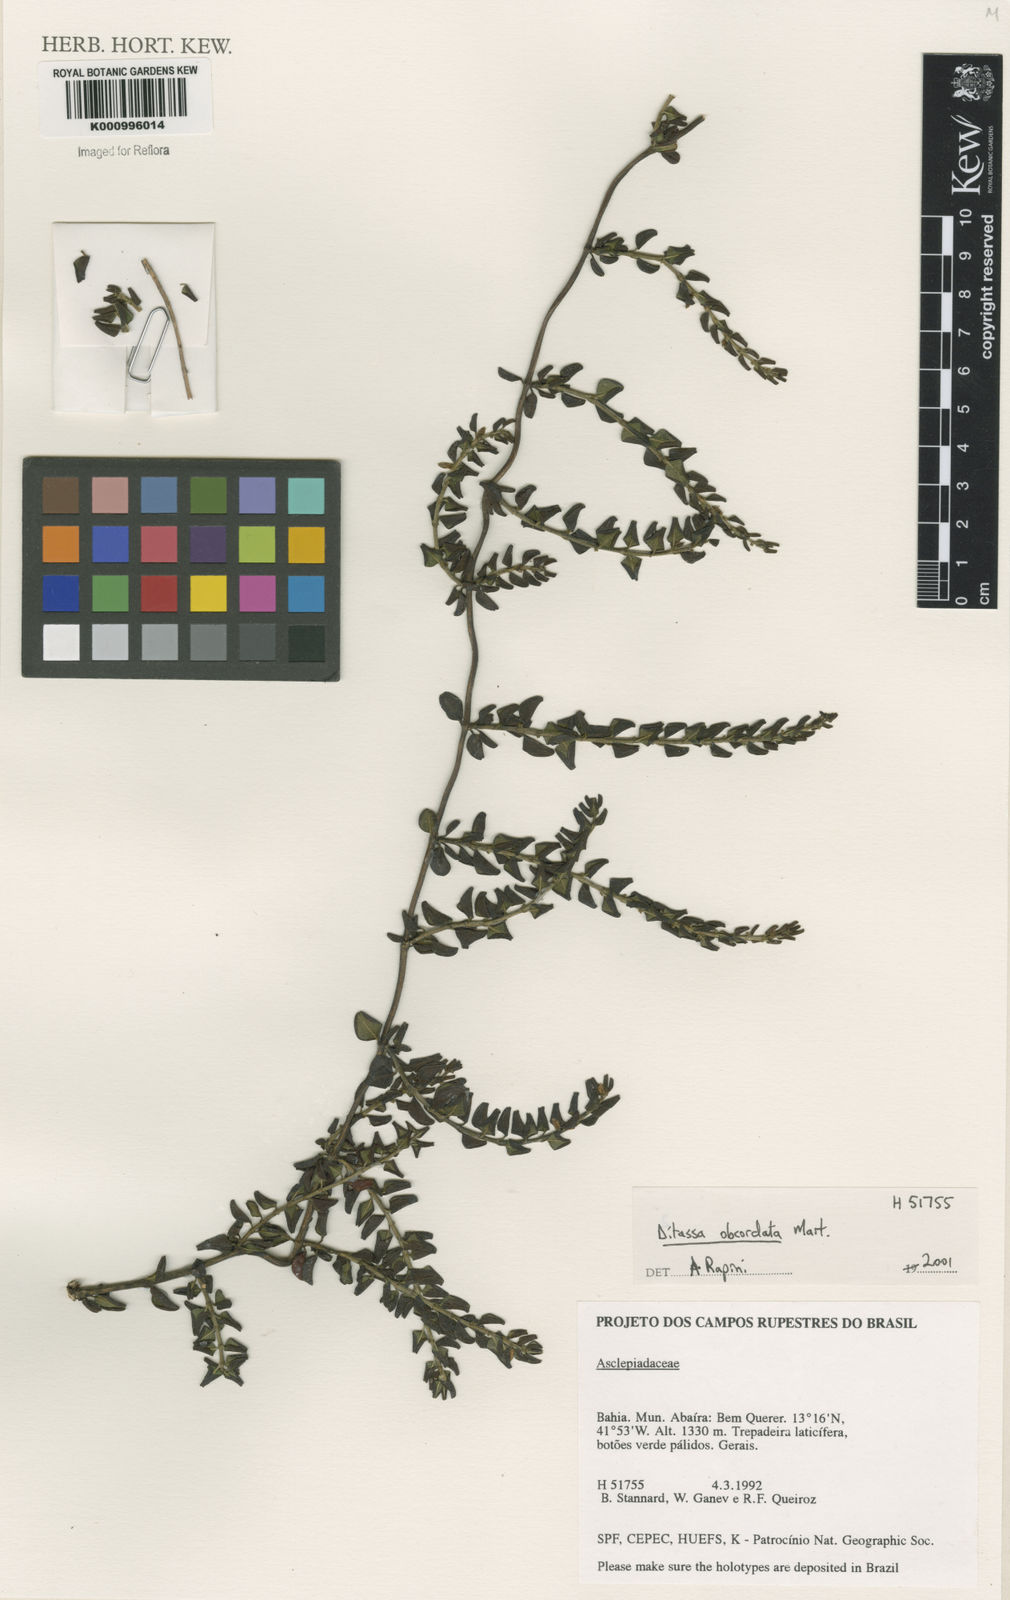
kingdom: Plantae
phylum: Tracheophyta
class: Magnoliopsida
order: Gentianales
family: Apocynaceae
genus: Ditassa
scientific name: Ditassa obcordata
